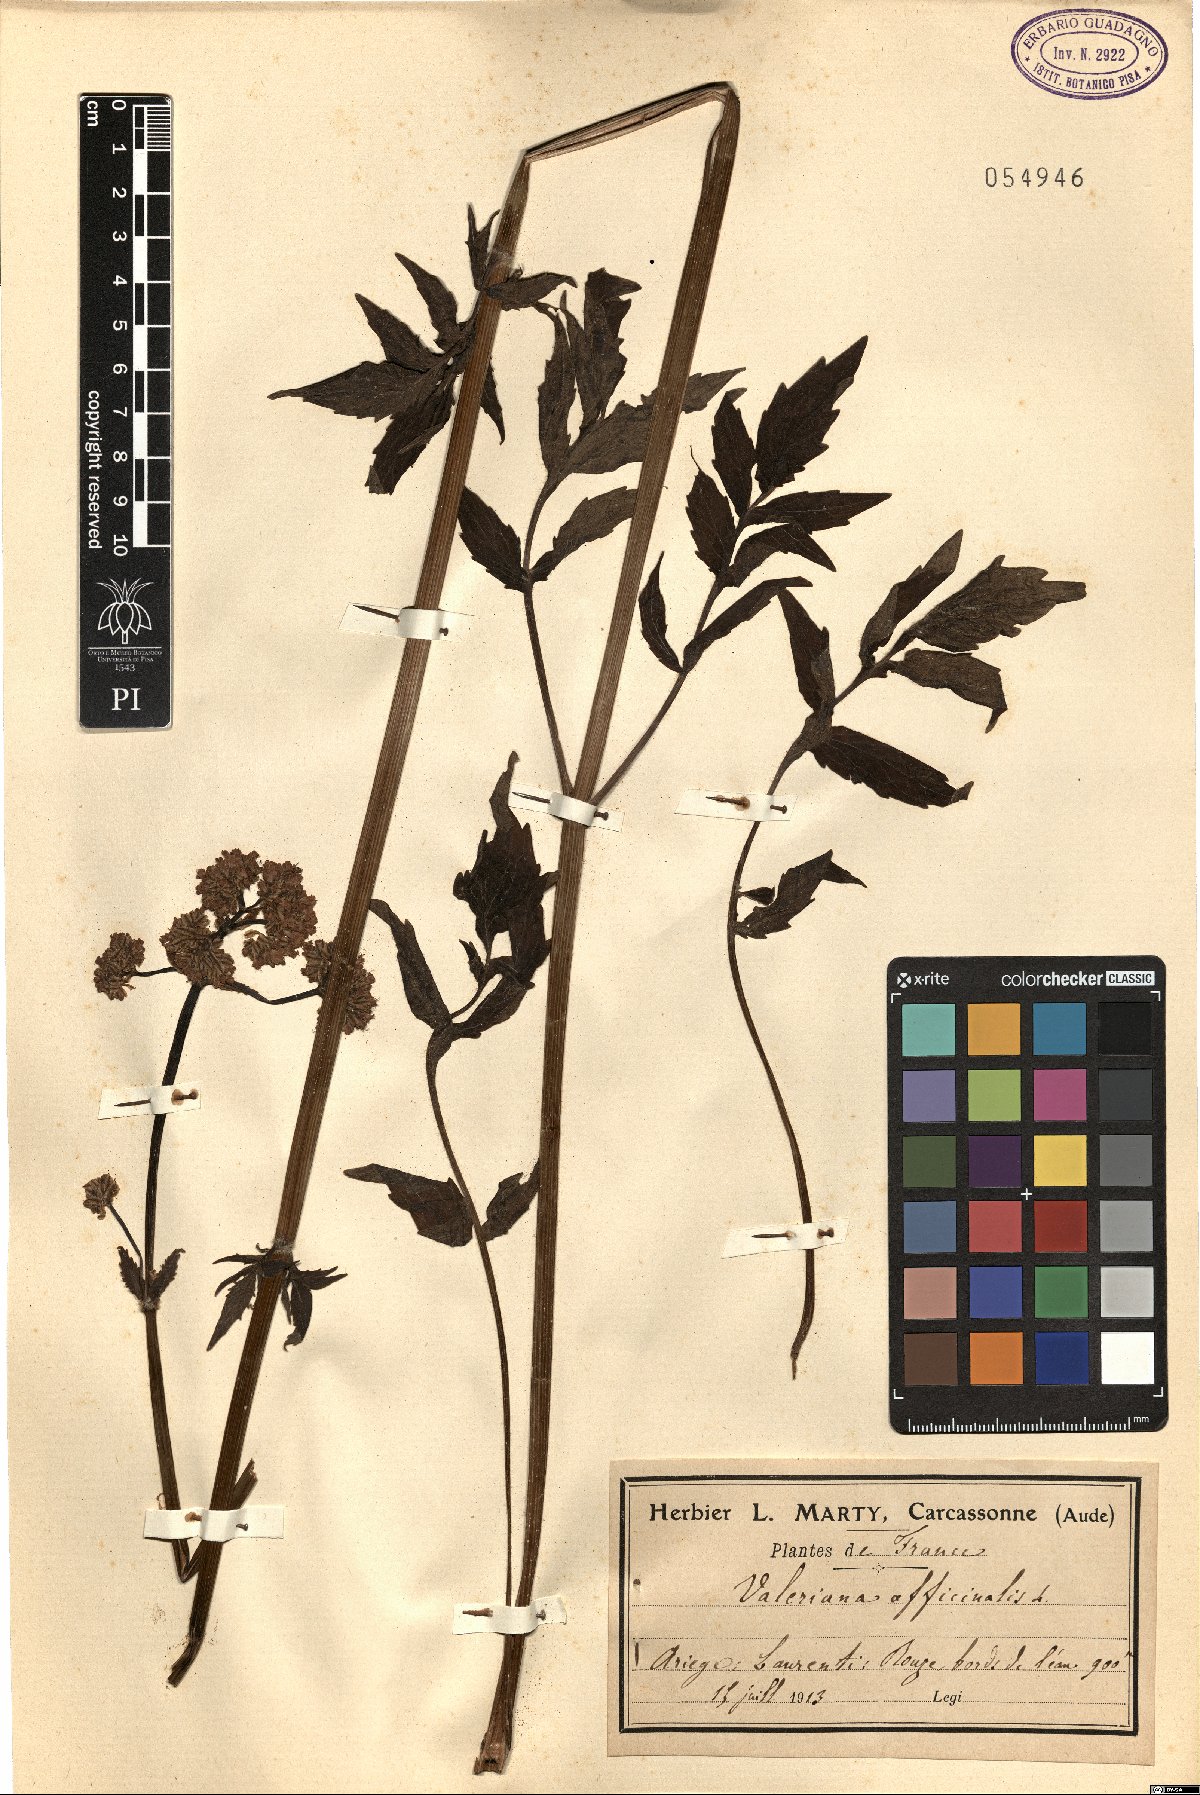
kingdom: Plantae
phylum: Tracheophyta
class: Magnoliopsida
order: Dipsacales
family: Caprifoliaceae
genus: Valeriana
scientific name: Valeriana officinalis
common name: Common valerian
